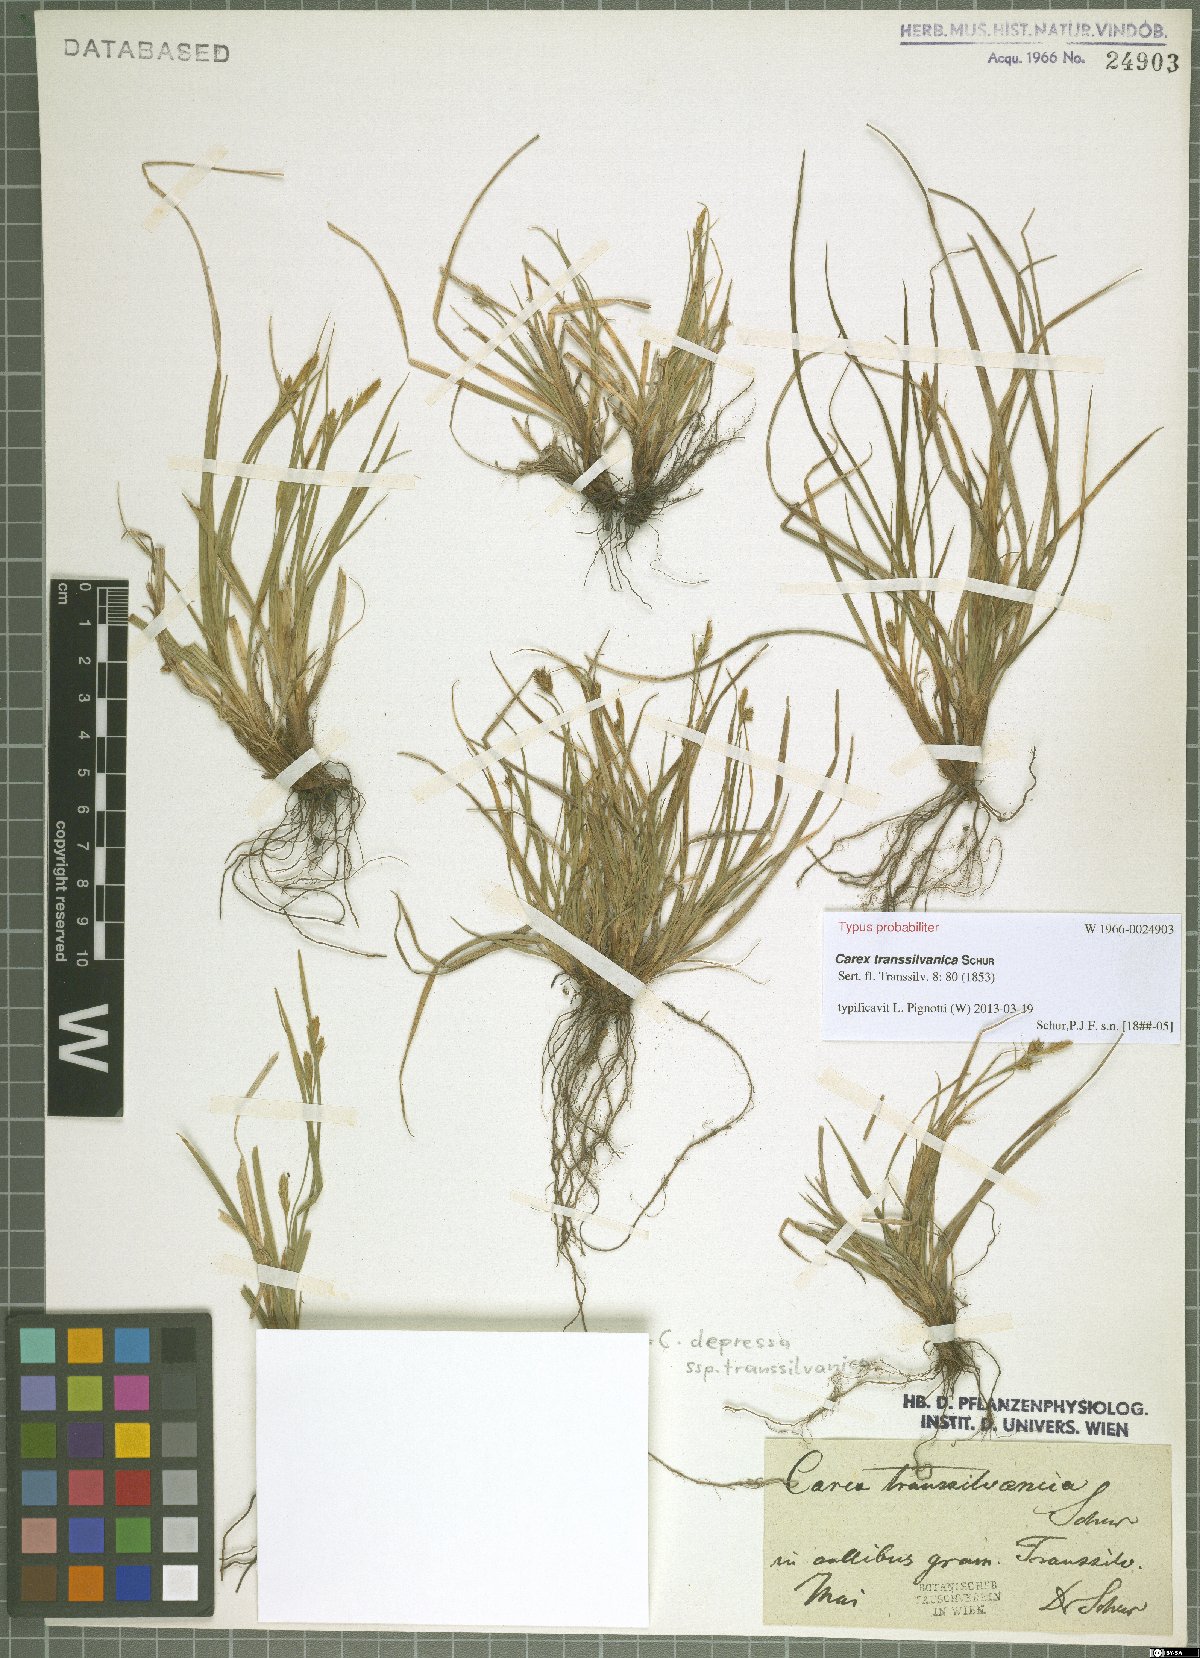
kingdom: Plantae
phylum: Tracheophyta
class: Liliopsida
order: Poales
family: Cyperaceae
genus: Carex
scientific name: Carex depressa
